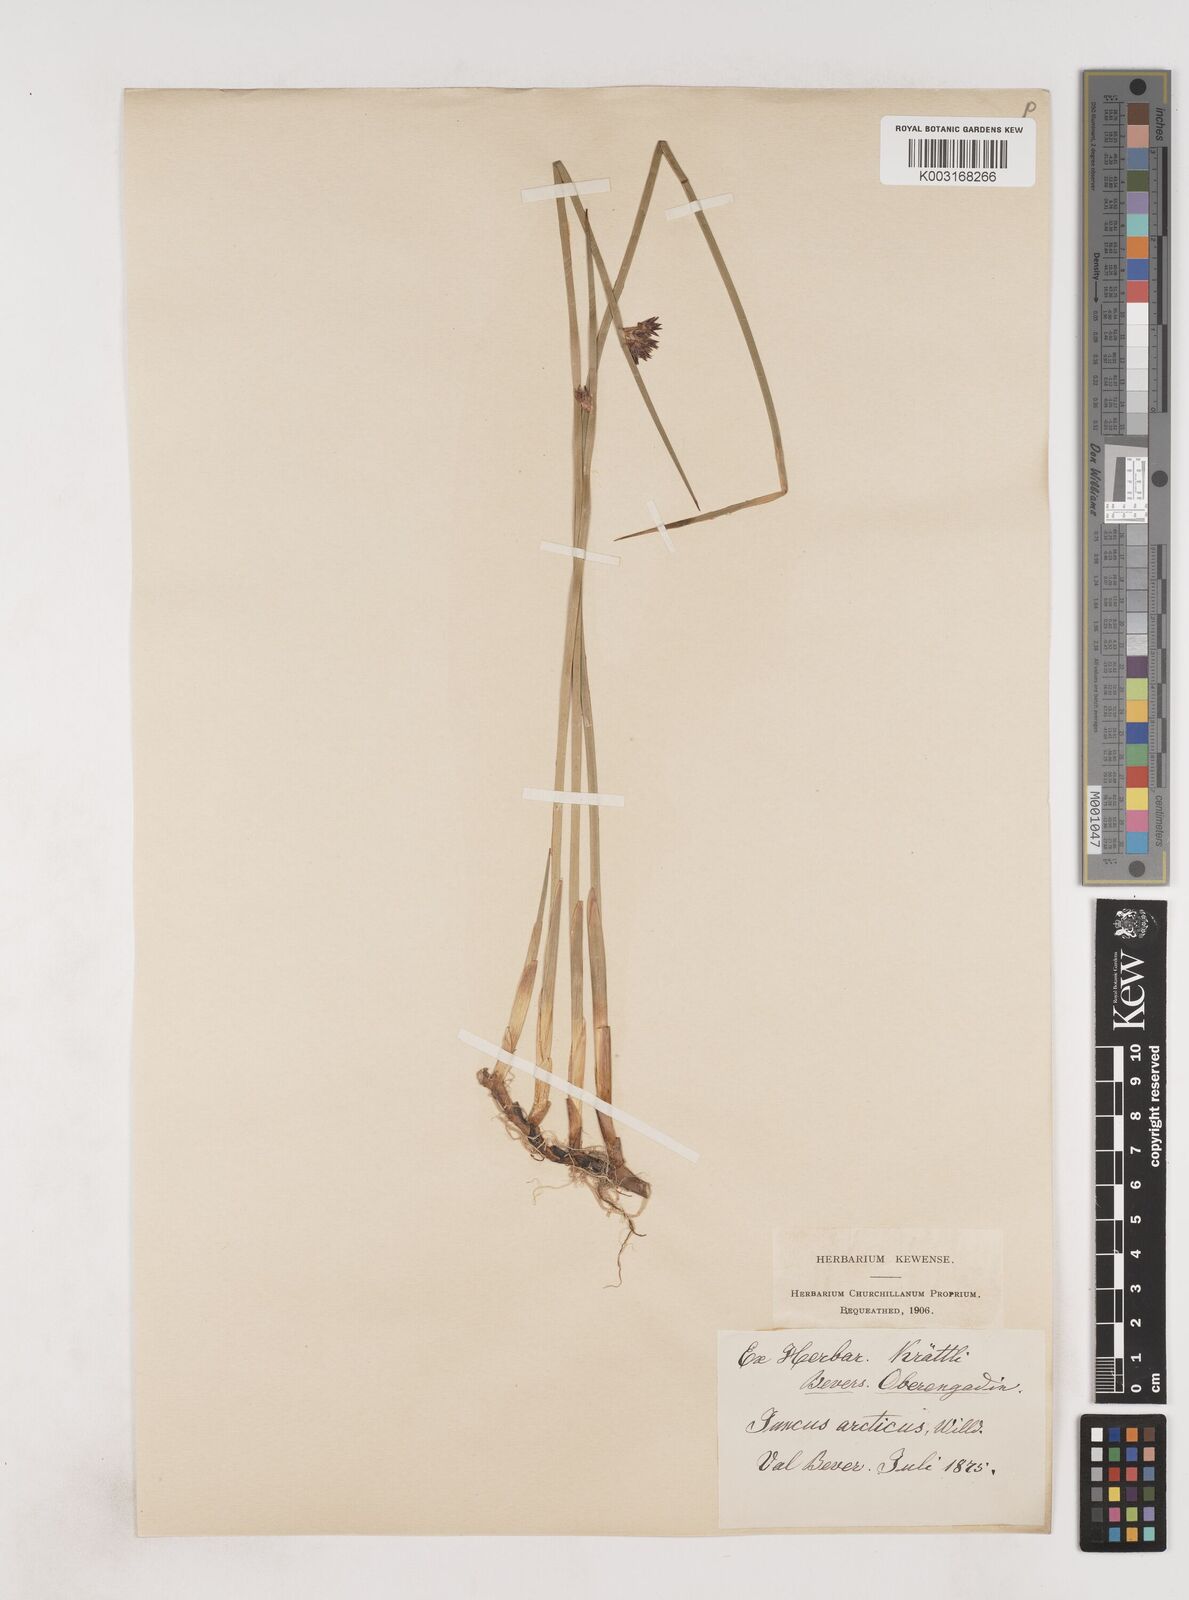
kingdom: Plantae
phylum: Tracheophyta
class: Liliopsida
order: Poales
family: Juncaceae
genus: Juncus
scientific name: Juncus arcticus
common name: Arctic rush
